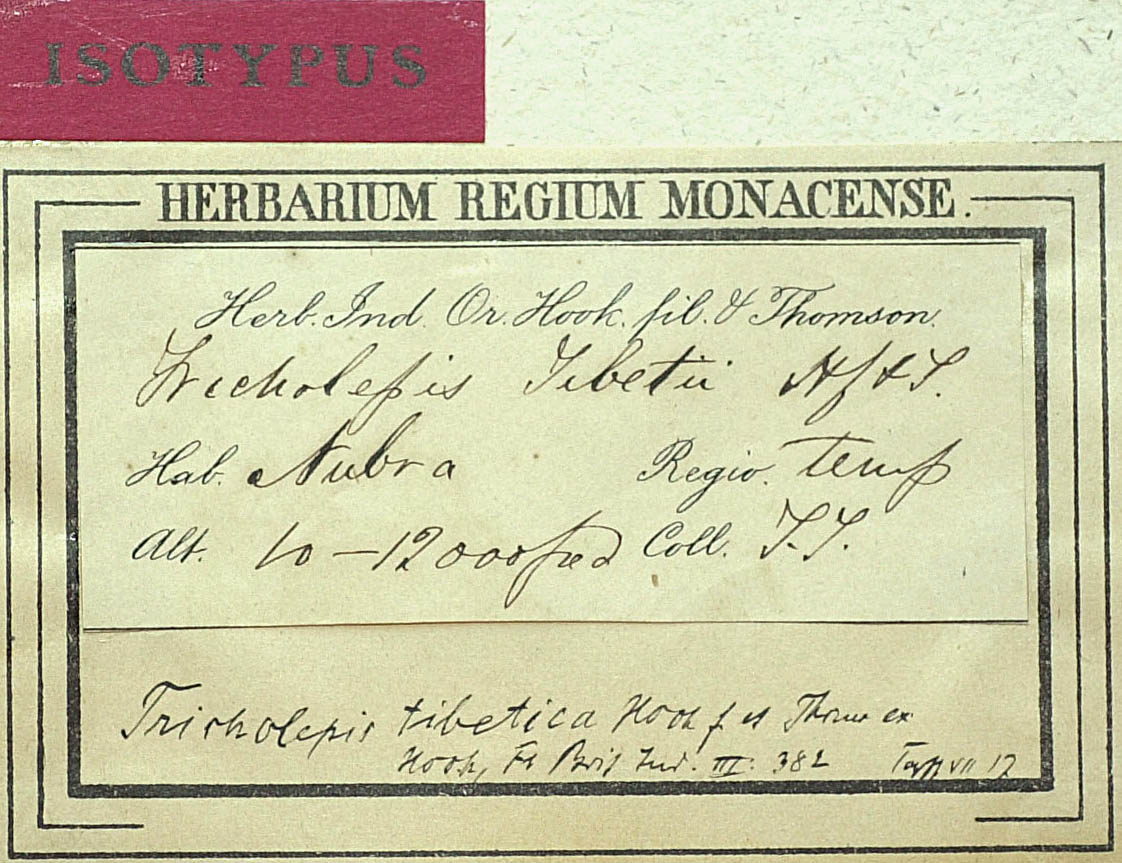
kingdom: Plantae
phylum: Tracheophyta
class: Magnoliopsida
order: Asterales
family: Asteraceae
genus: Tricholepis
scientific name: Tricholepis tibetica
